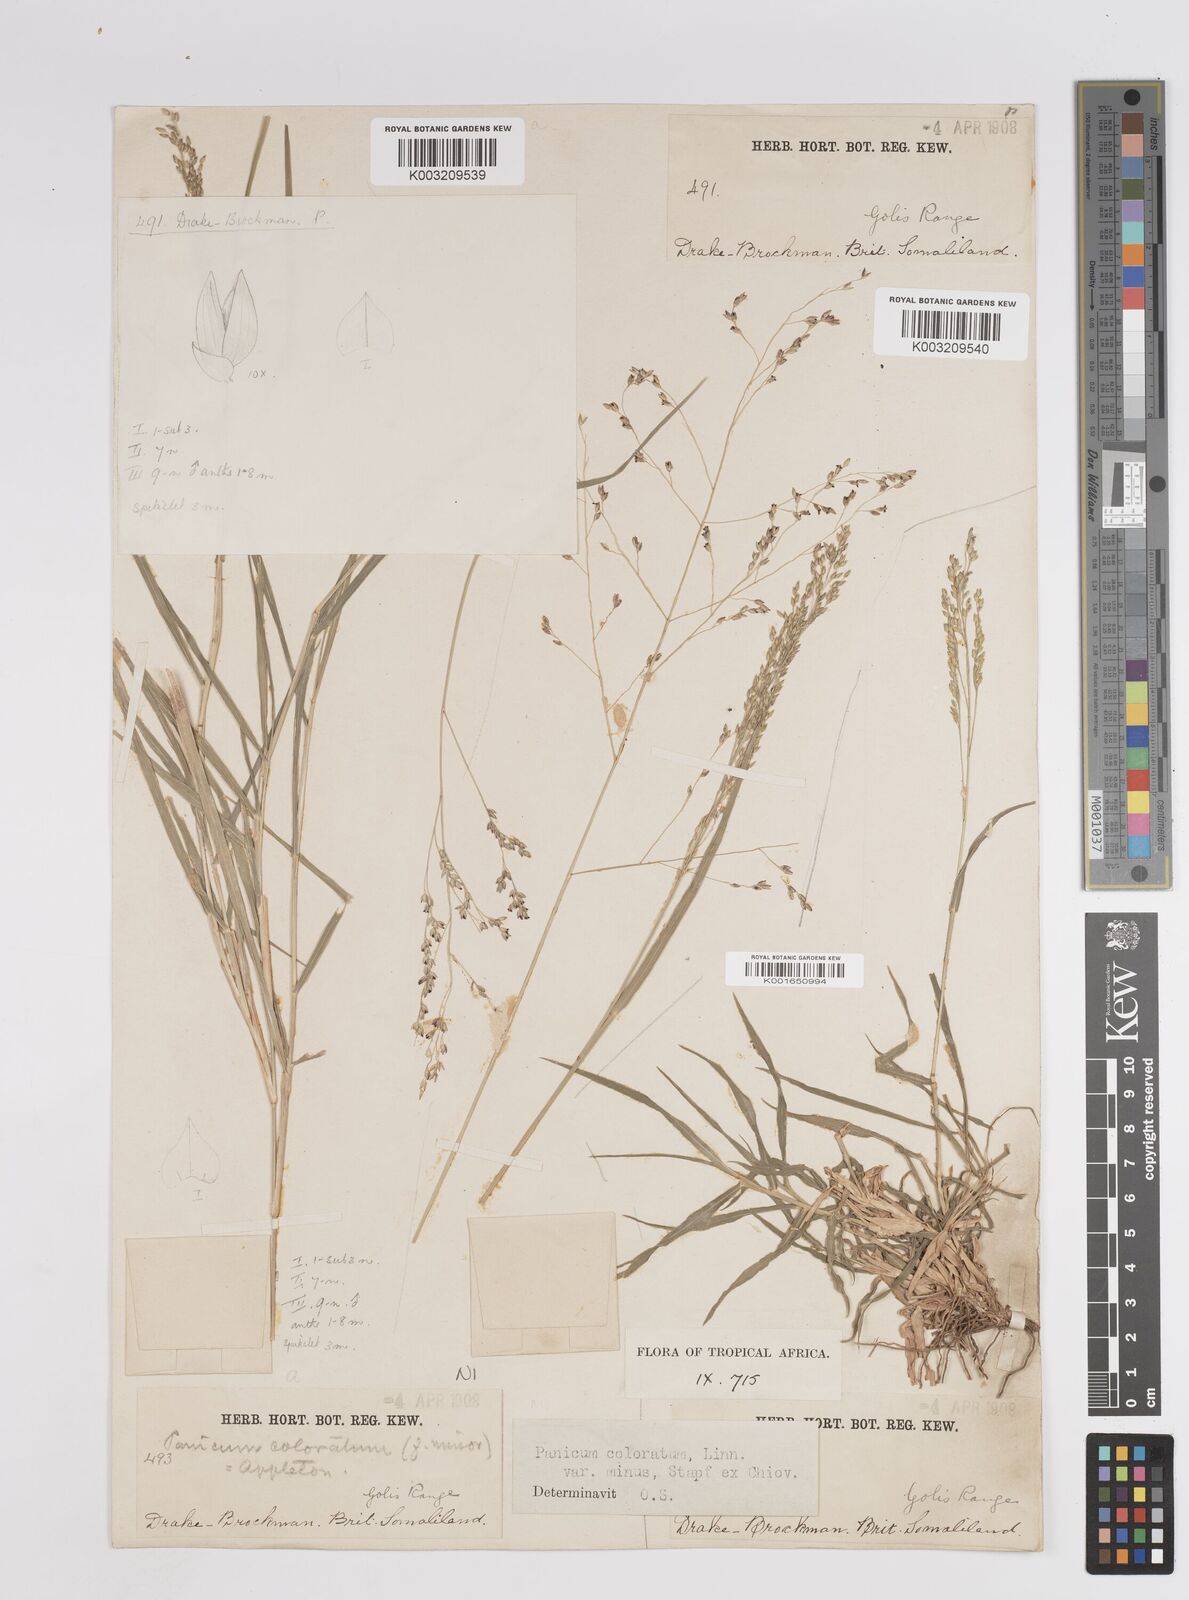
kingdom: Plantae
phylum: Tracheophyta
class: Liliopsida
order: Poales
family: Poaceae
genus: Panicum
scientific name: Panicum coloratum
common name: Kleingrass
